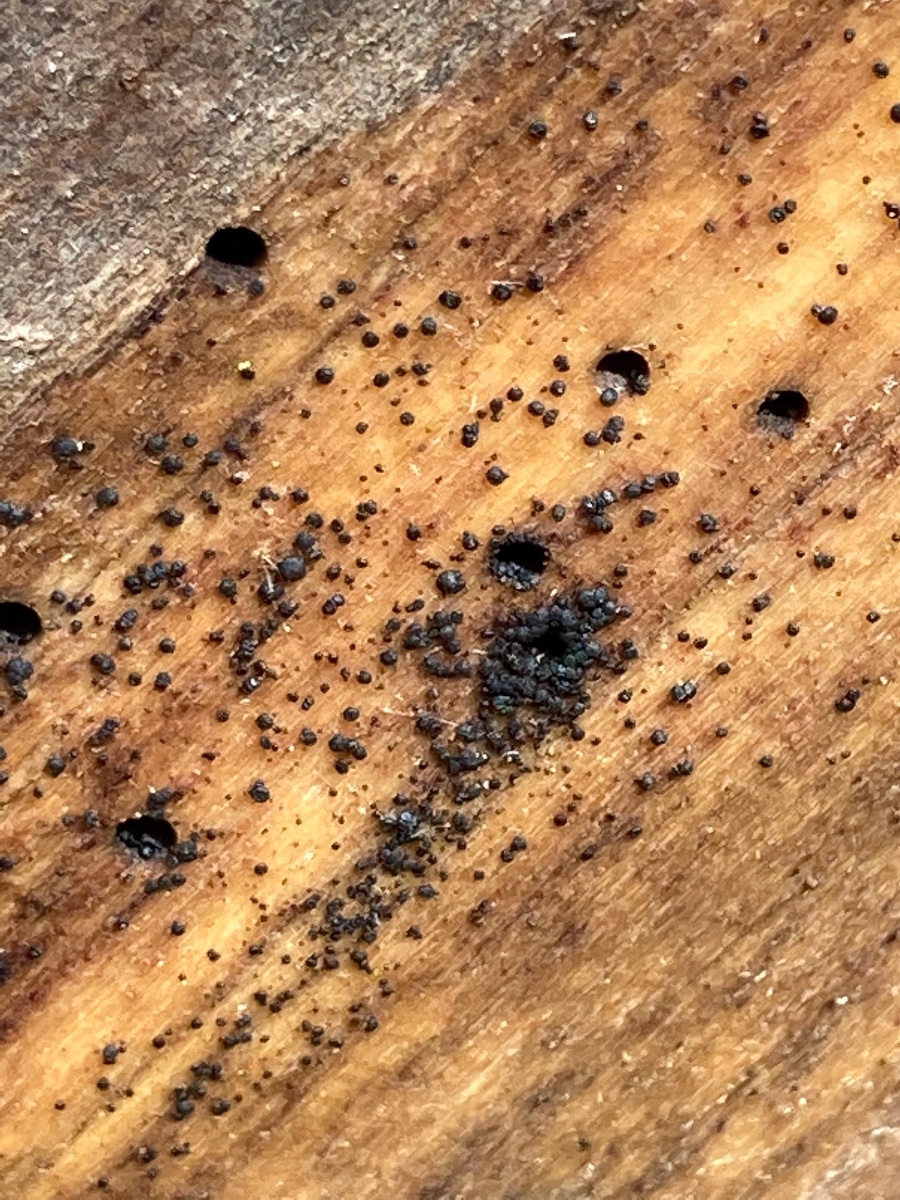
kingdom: Fungi
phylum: Ascomycota
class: Leotiomycetes
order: Leotiales
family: Tympanidaceae
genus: Vexillomyces
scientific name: Vexillomyces xylophilus
